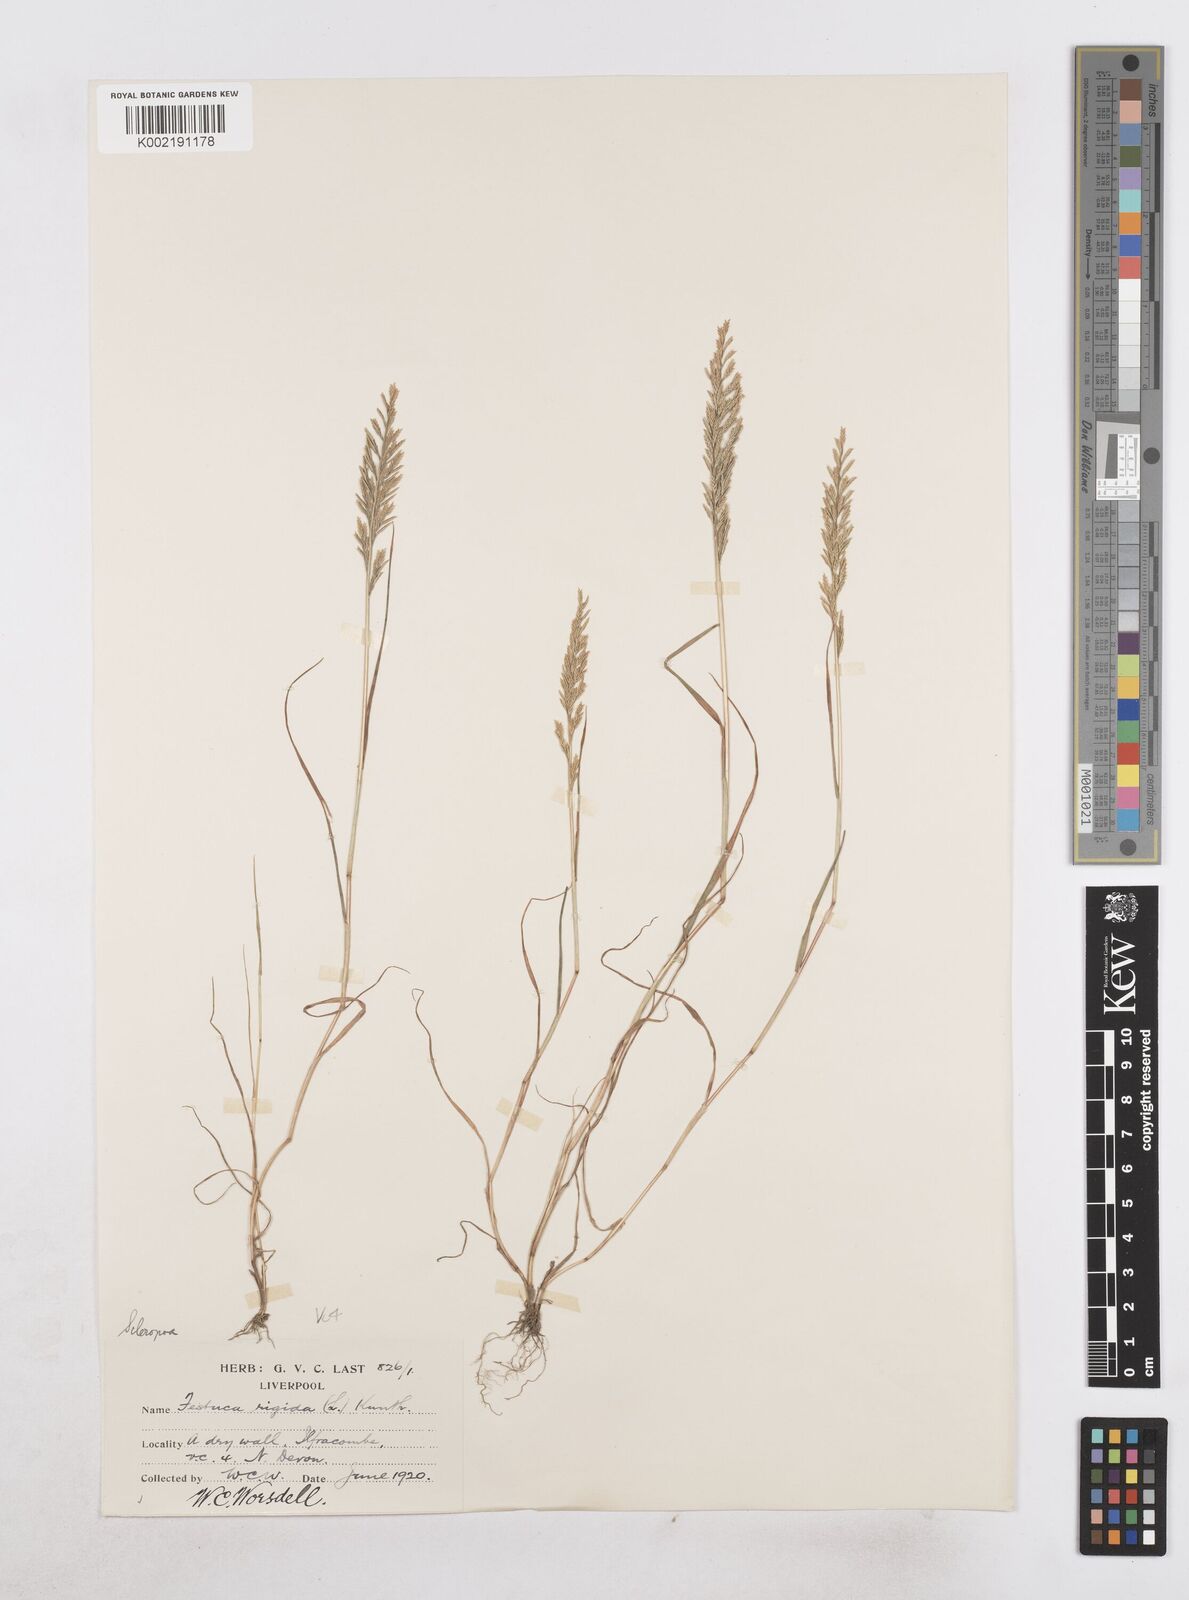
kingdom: Plantae
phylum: Tracheophyta
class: Liliopsida
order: Poales
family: Poaceae
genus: Catapodium
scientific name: Catapodium rigidum
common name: Fern-grass
